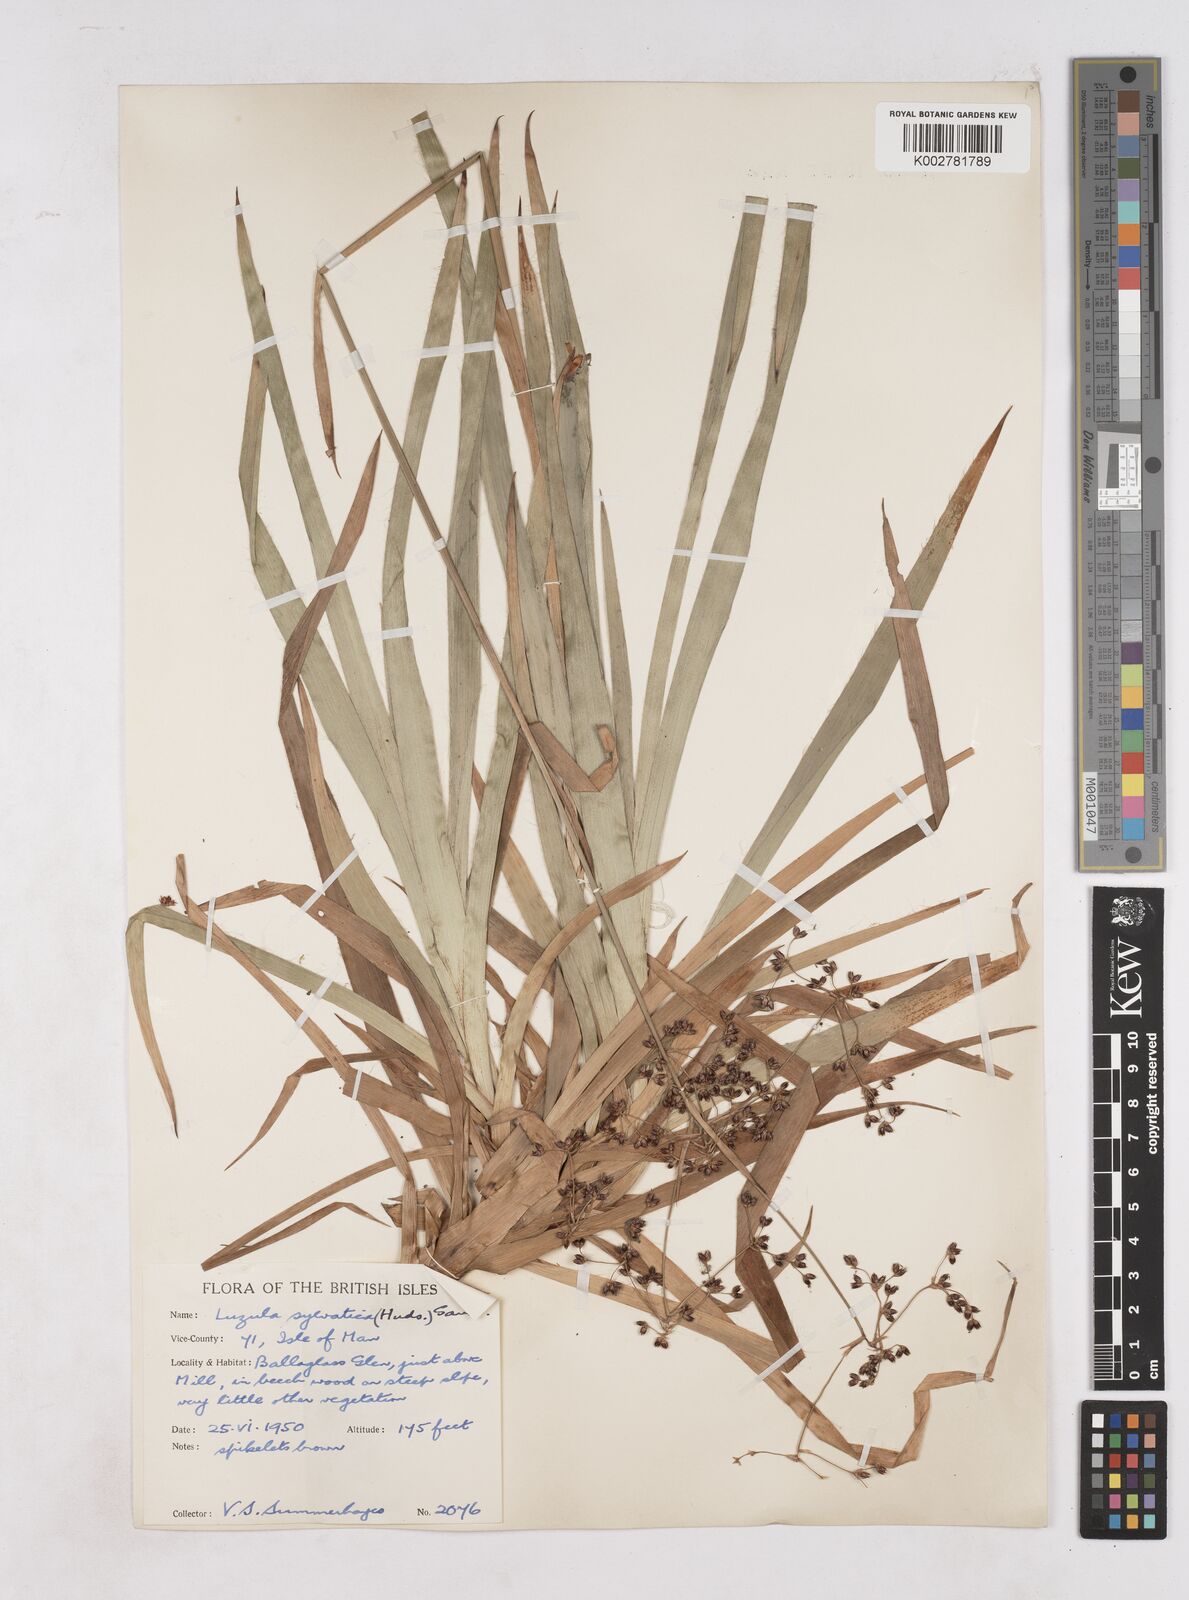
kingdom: Plantae
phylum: Tracheophyta
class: Liliopsida
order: Poales
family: Juncaceae
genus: Luzula
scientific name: Luzula sylvatica
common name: Great wood-rush
